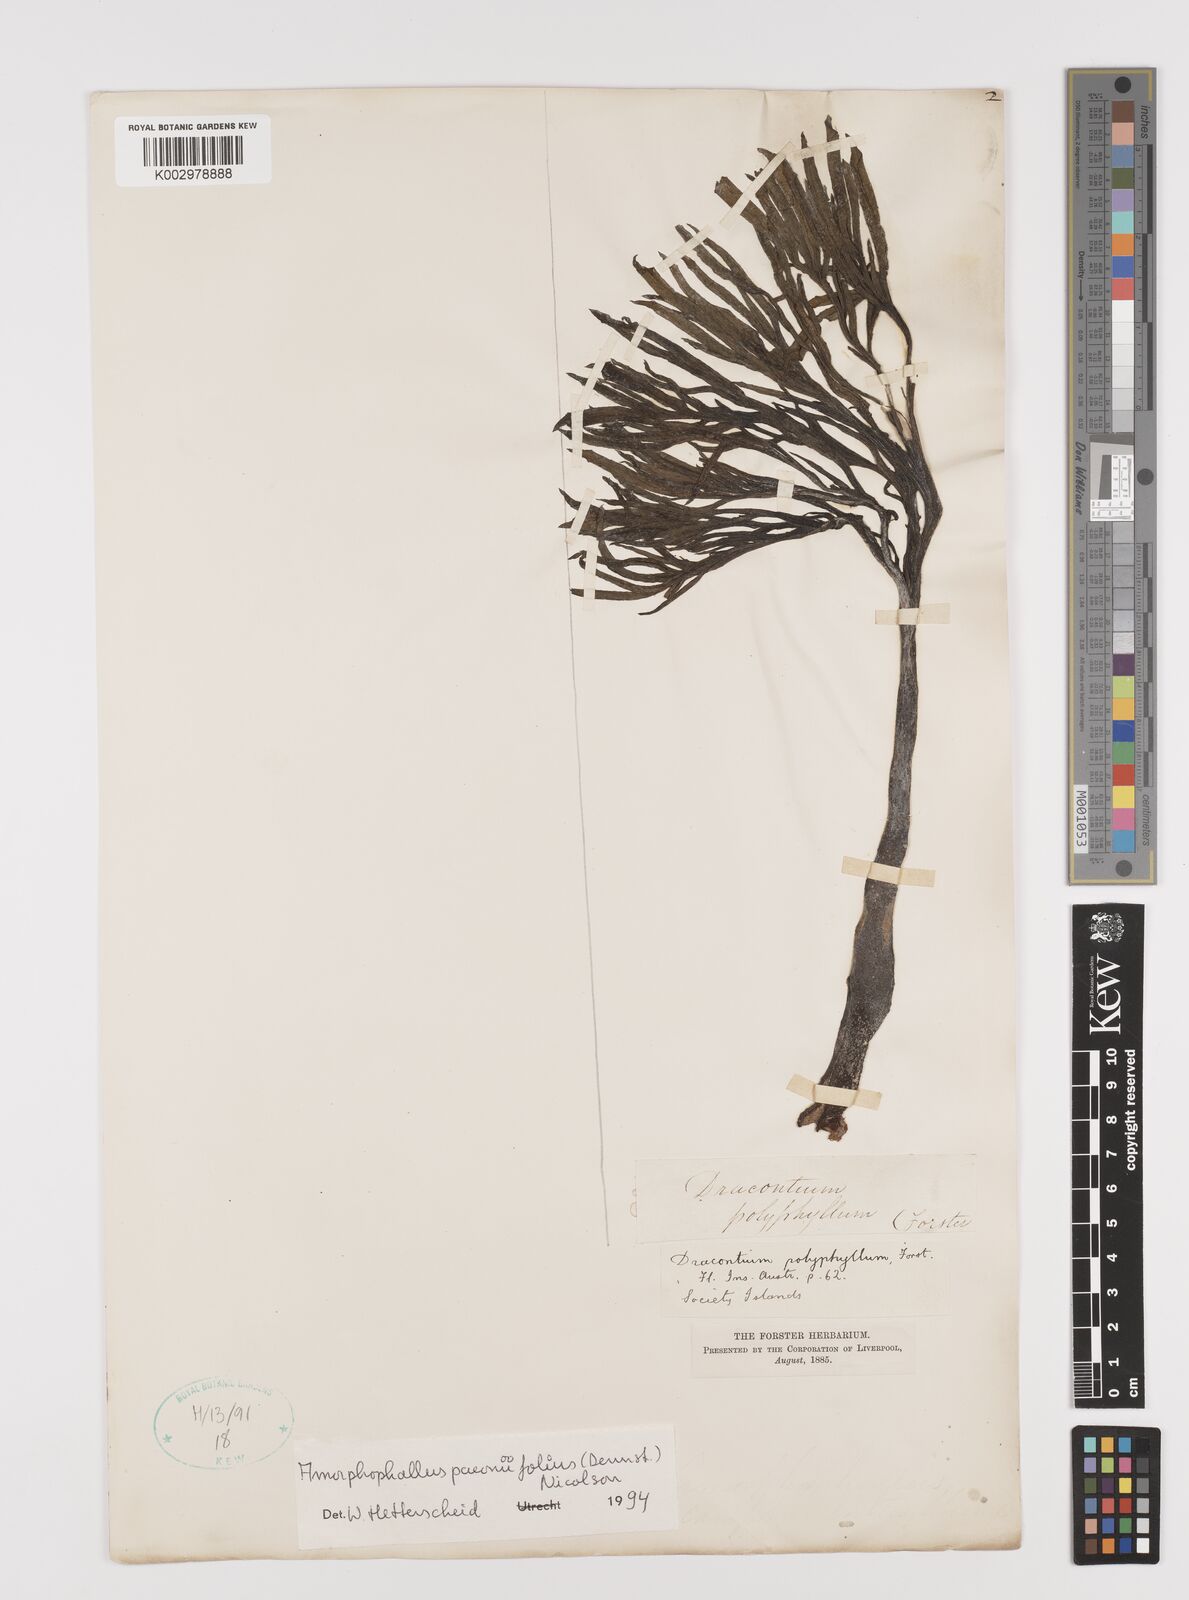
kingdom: Plantae
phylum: Tracheophyta
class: Liliopsida
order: Alismatales
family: Araceae
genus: Amorphophallus
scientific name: Amorphophallus paeoniifolius
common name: Telinga-potato
